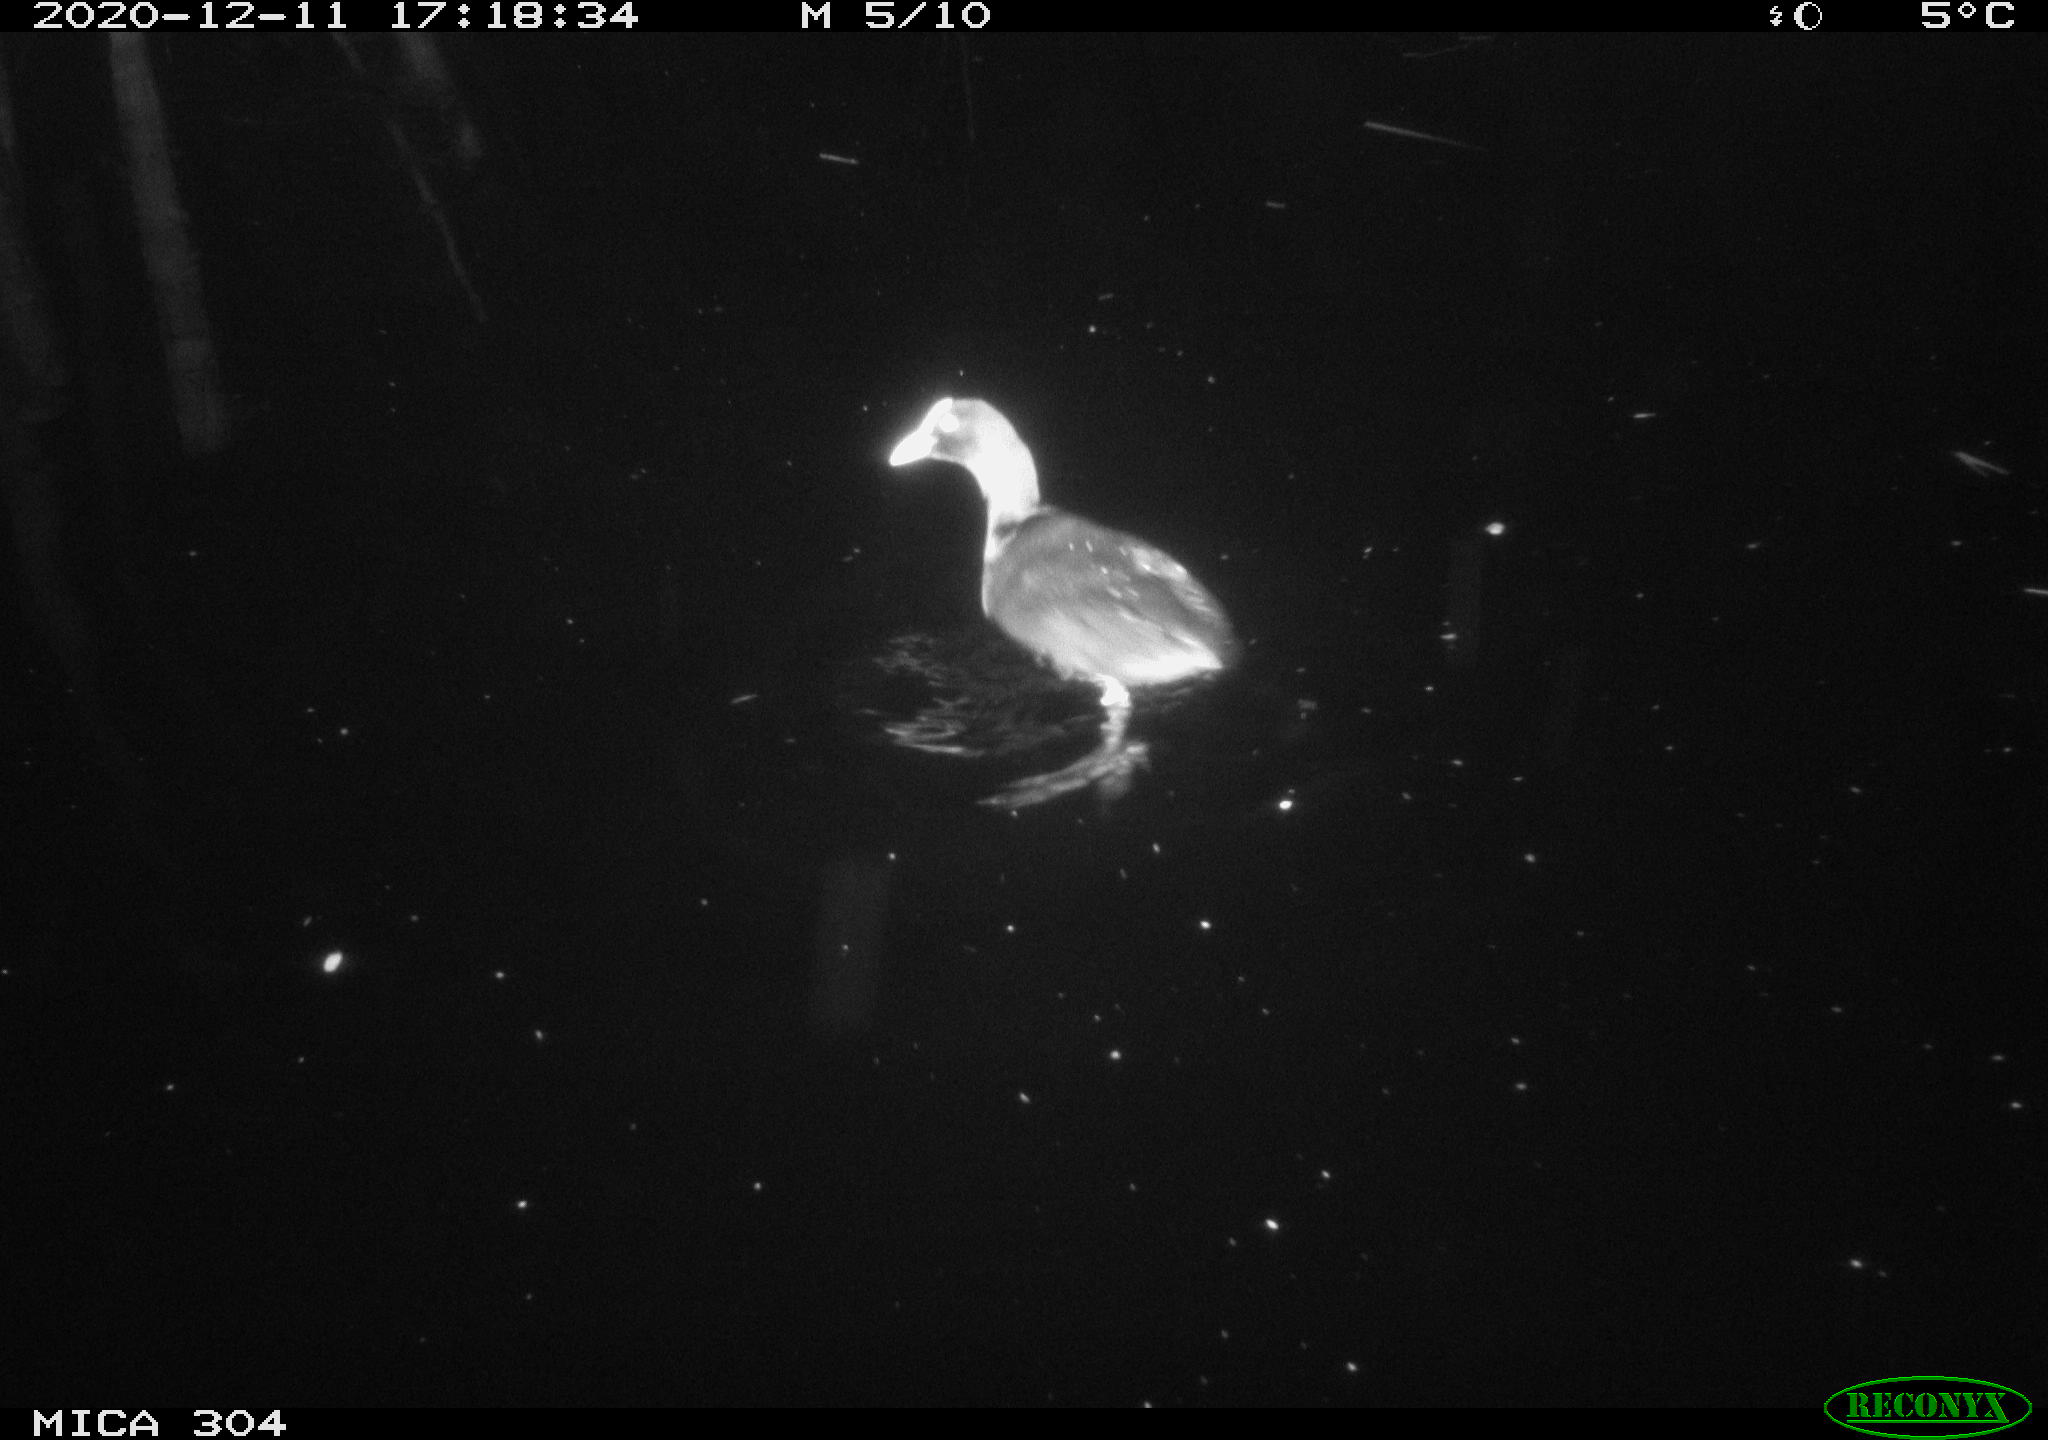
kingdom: Animalia
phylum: Chordata
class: Aves
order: Gruiformes
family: Rallidae
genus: Gallinula
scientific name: Gallinula chloropus
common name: Common moorhen
